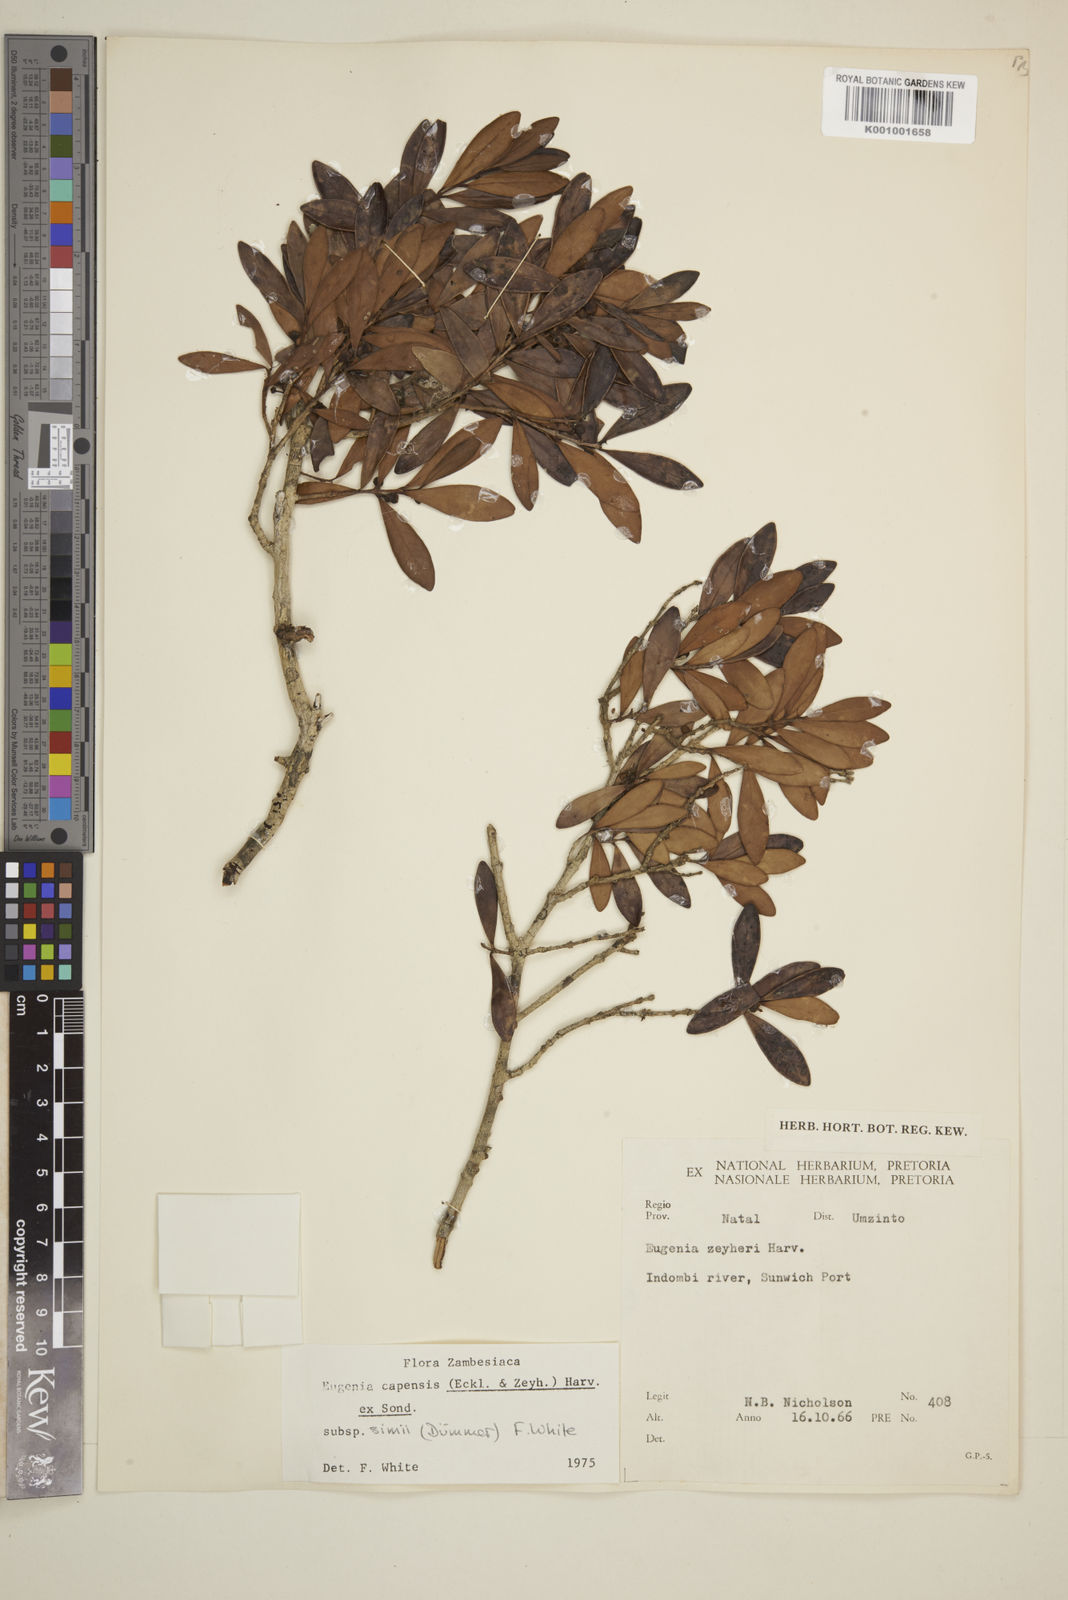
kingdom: Plantae
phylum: Tracheophyta
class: Magnoliopsida
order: Myrtales
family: Myrtaceae
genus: Eugenia
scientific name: Eugenia simii
